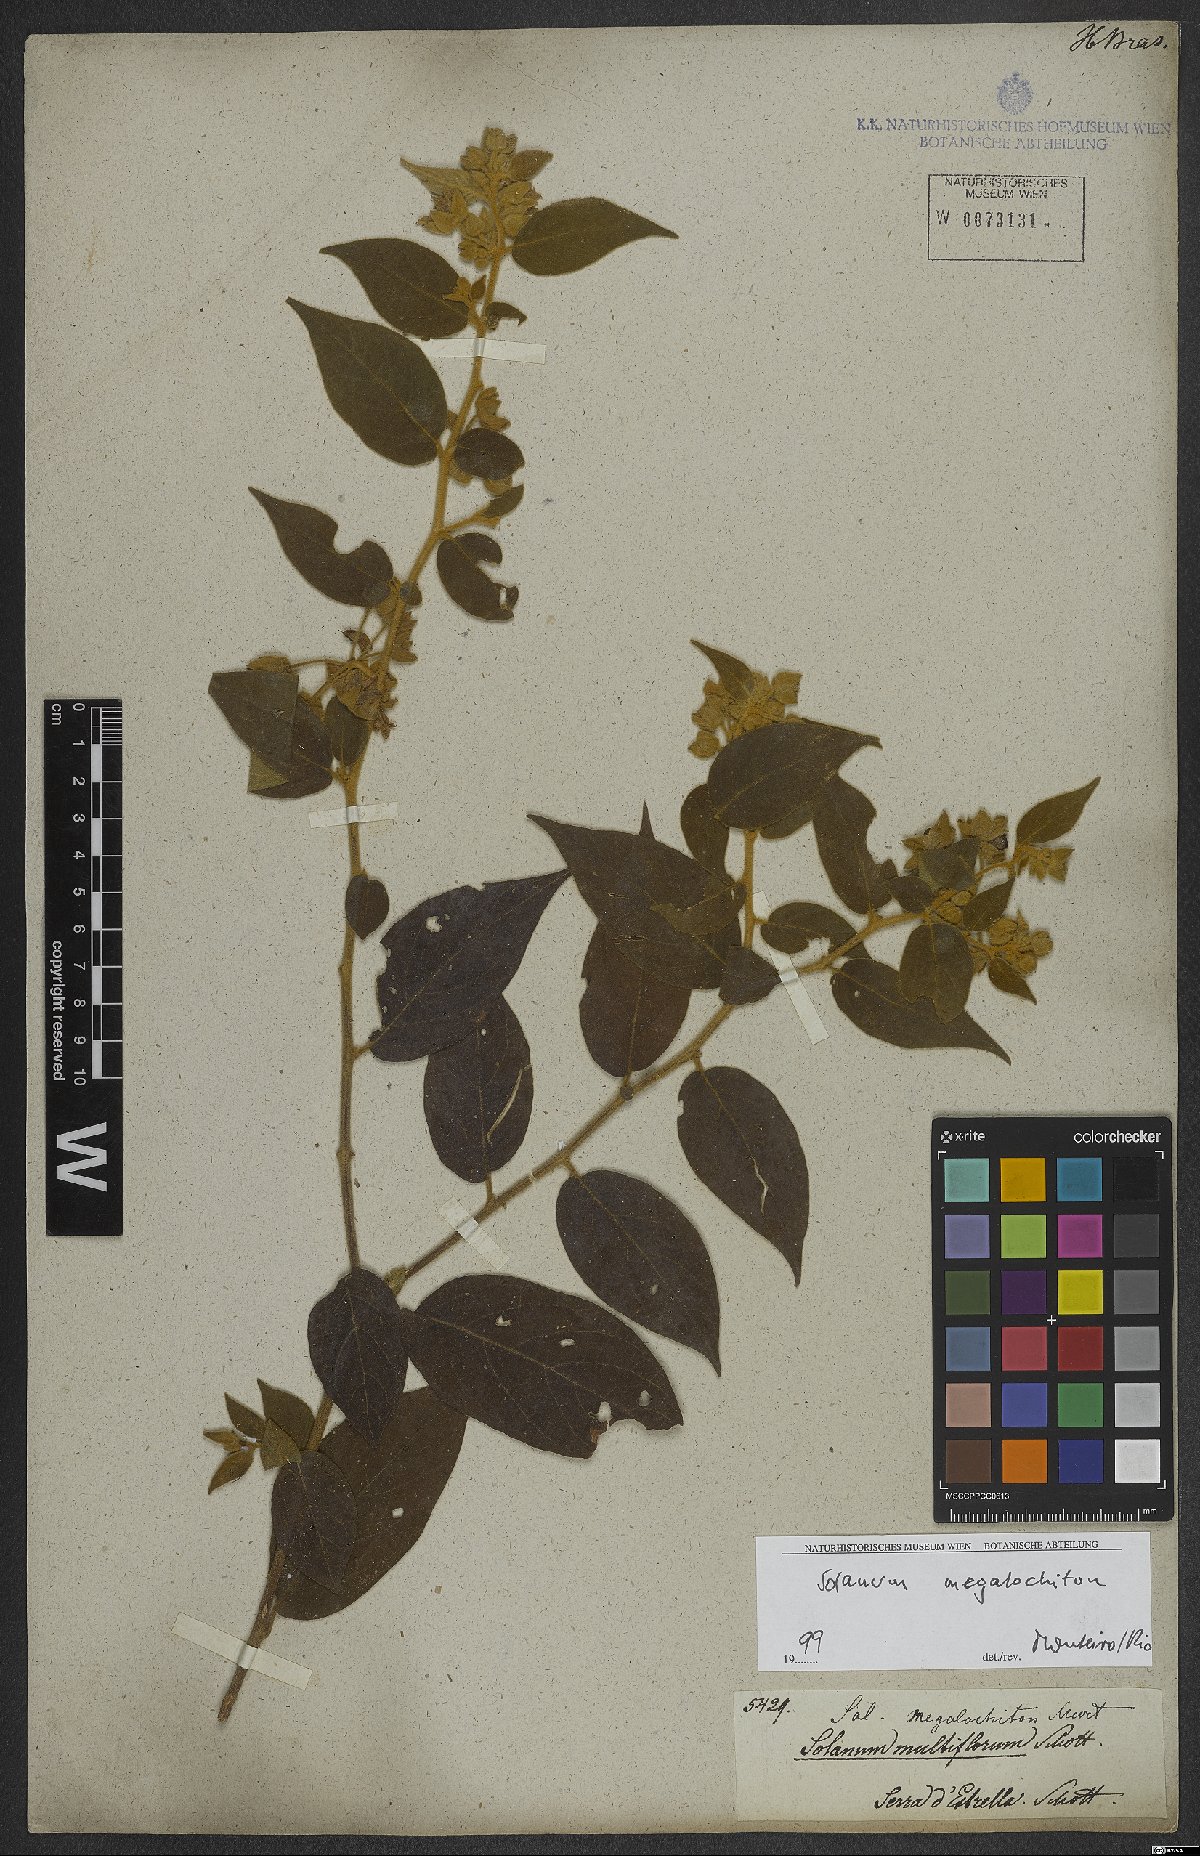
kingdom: Plantae
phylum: Tracheophyta
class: Magnoliopsida
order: Solanales
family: Solanaceae
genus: Solanum
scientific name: Solanum megalochiton
